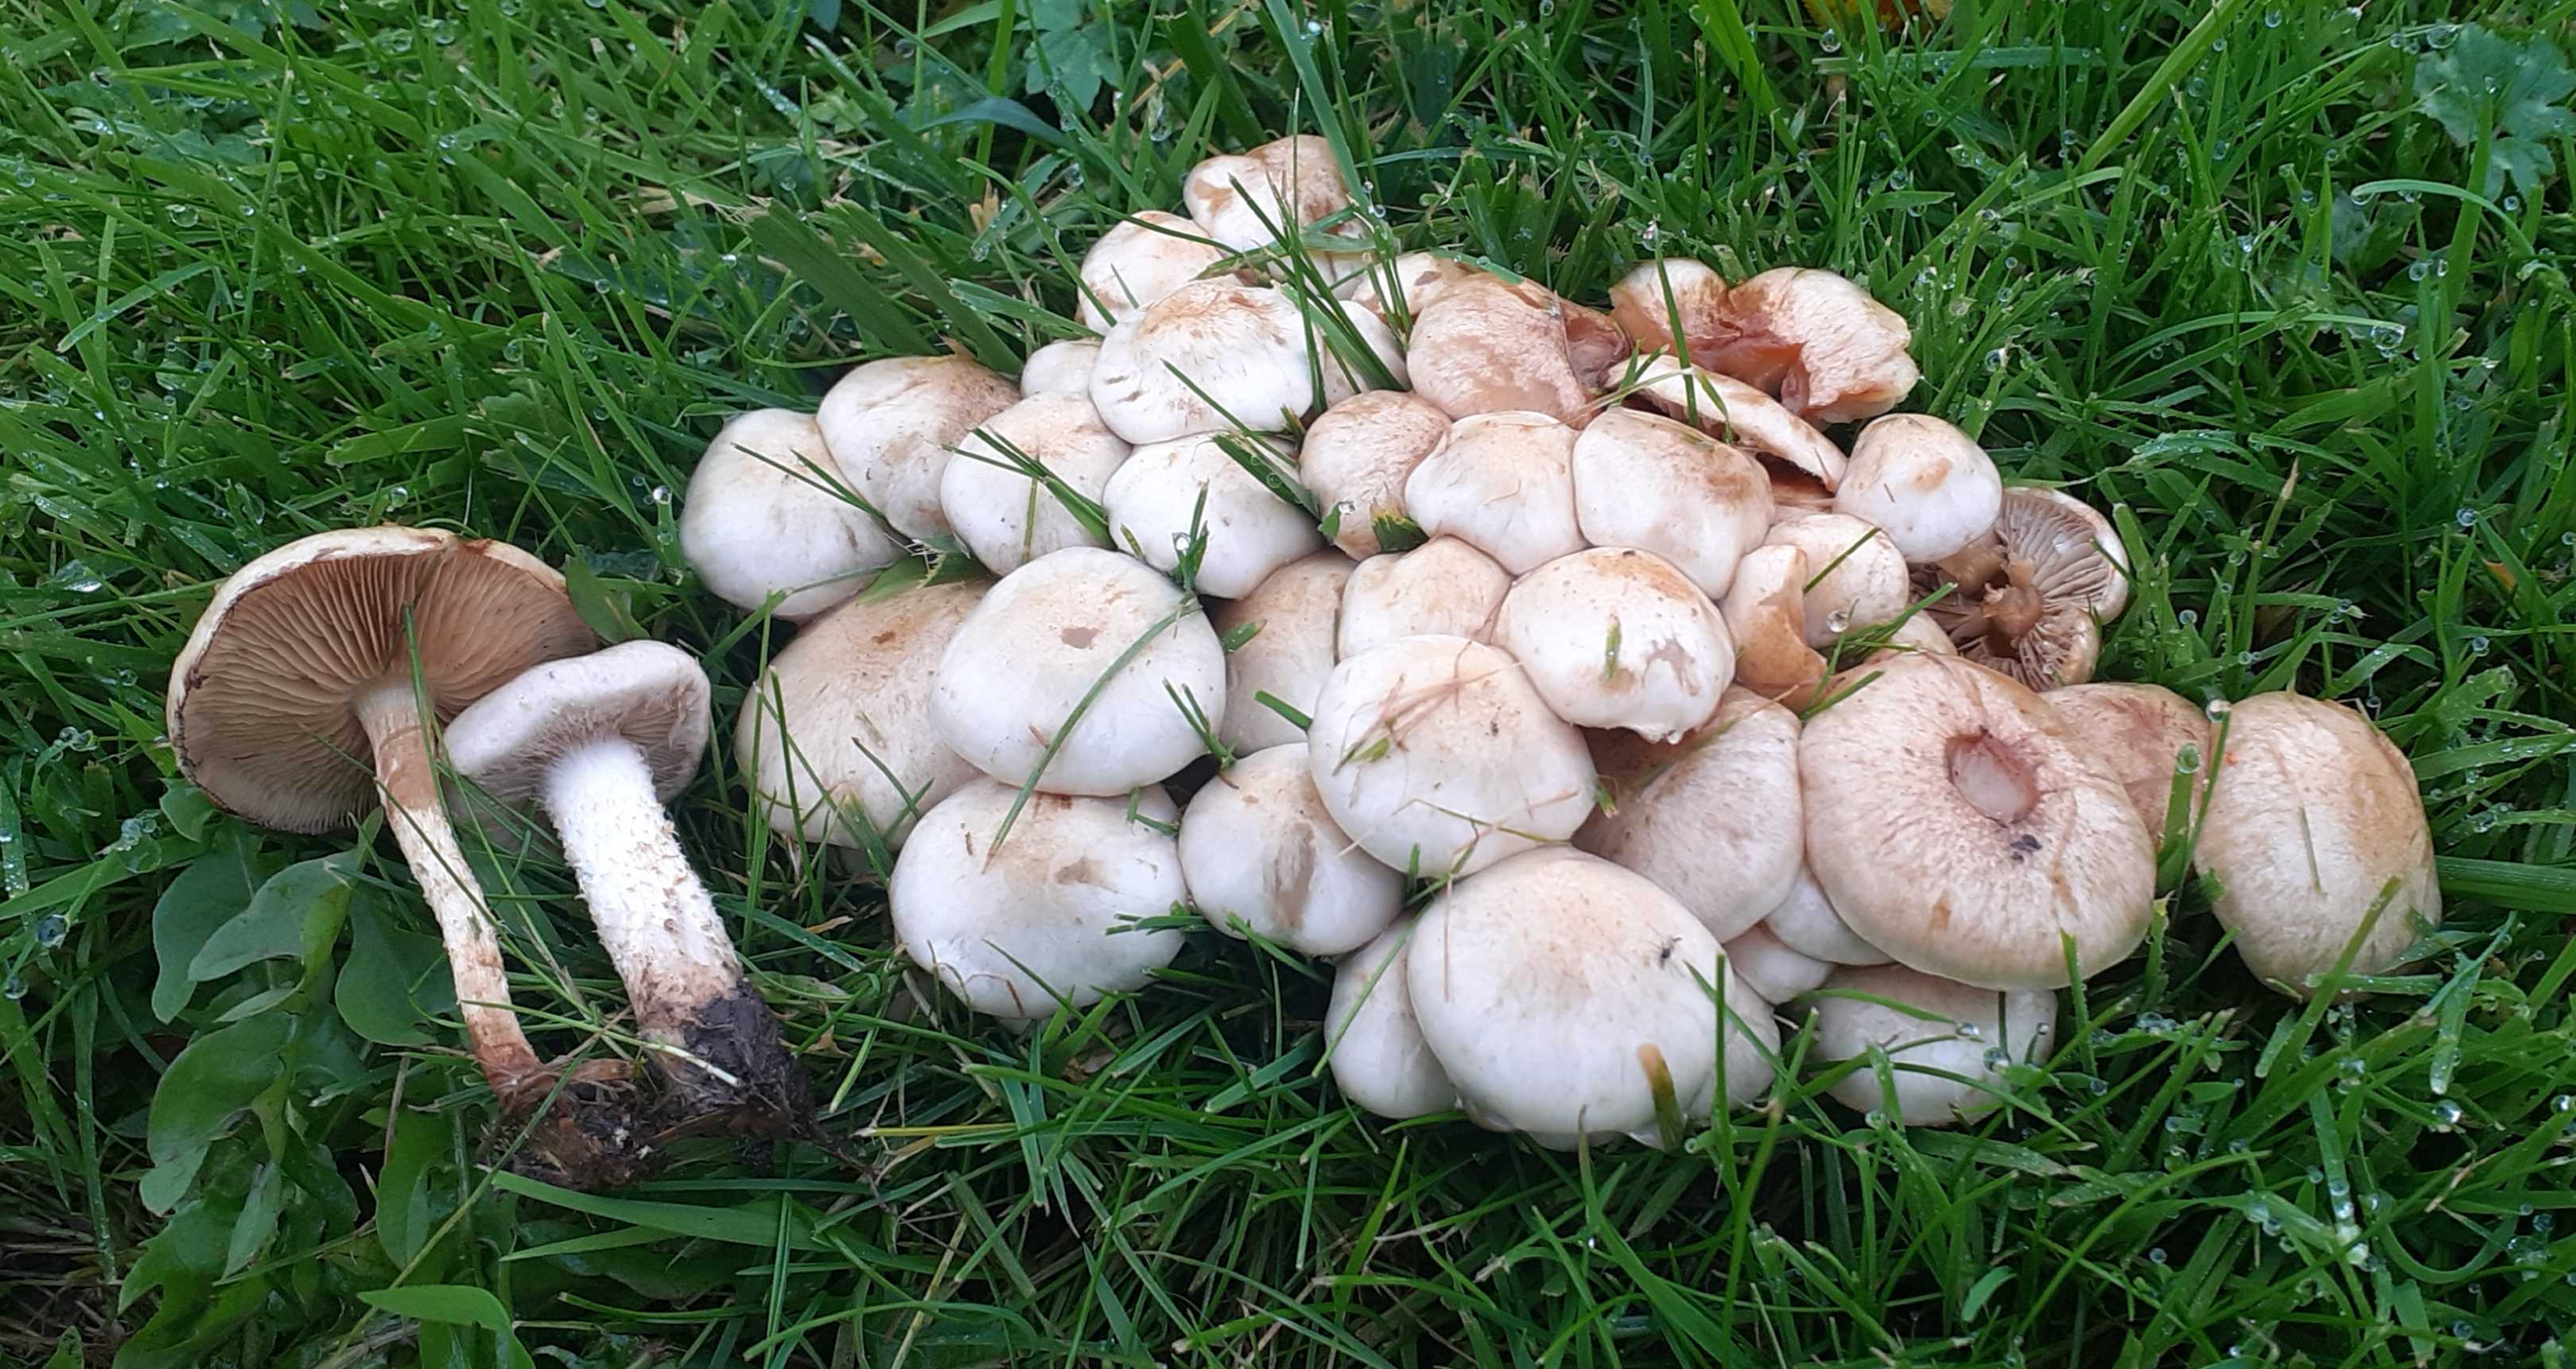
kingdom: Fungi
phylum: Basidiomycota
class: Agaricomycetes
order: Agaricales
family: Strophariaceae
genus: Pholiota
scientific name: Pholiota gummosa
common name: grøngul skælhat
